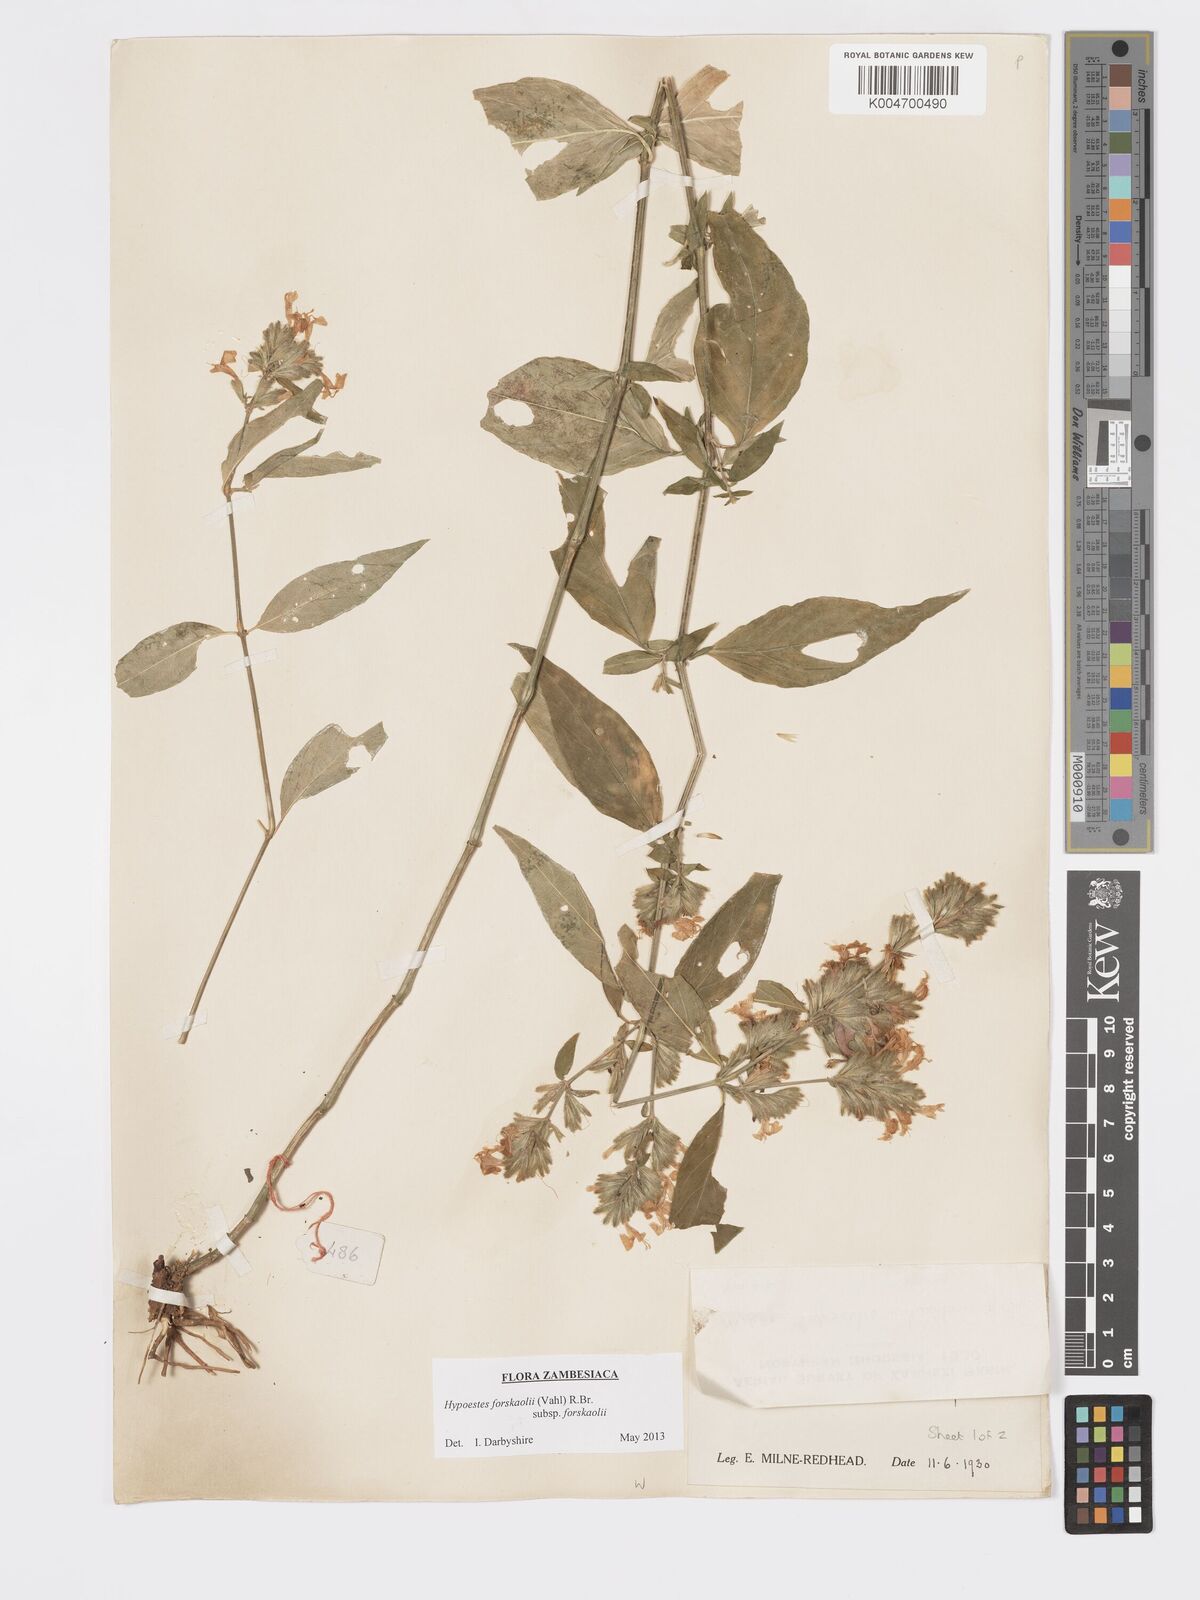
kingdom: Plantae
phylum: Tracheophyta
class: Magnoliopsida
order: Lamiales
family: Acanthaceae
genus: Hypoestes
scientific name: Hypoestes forskaolii
